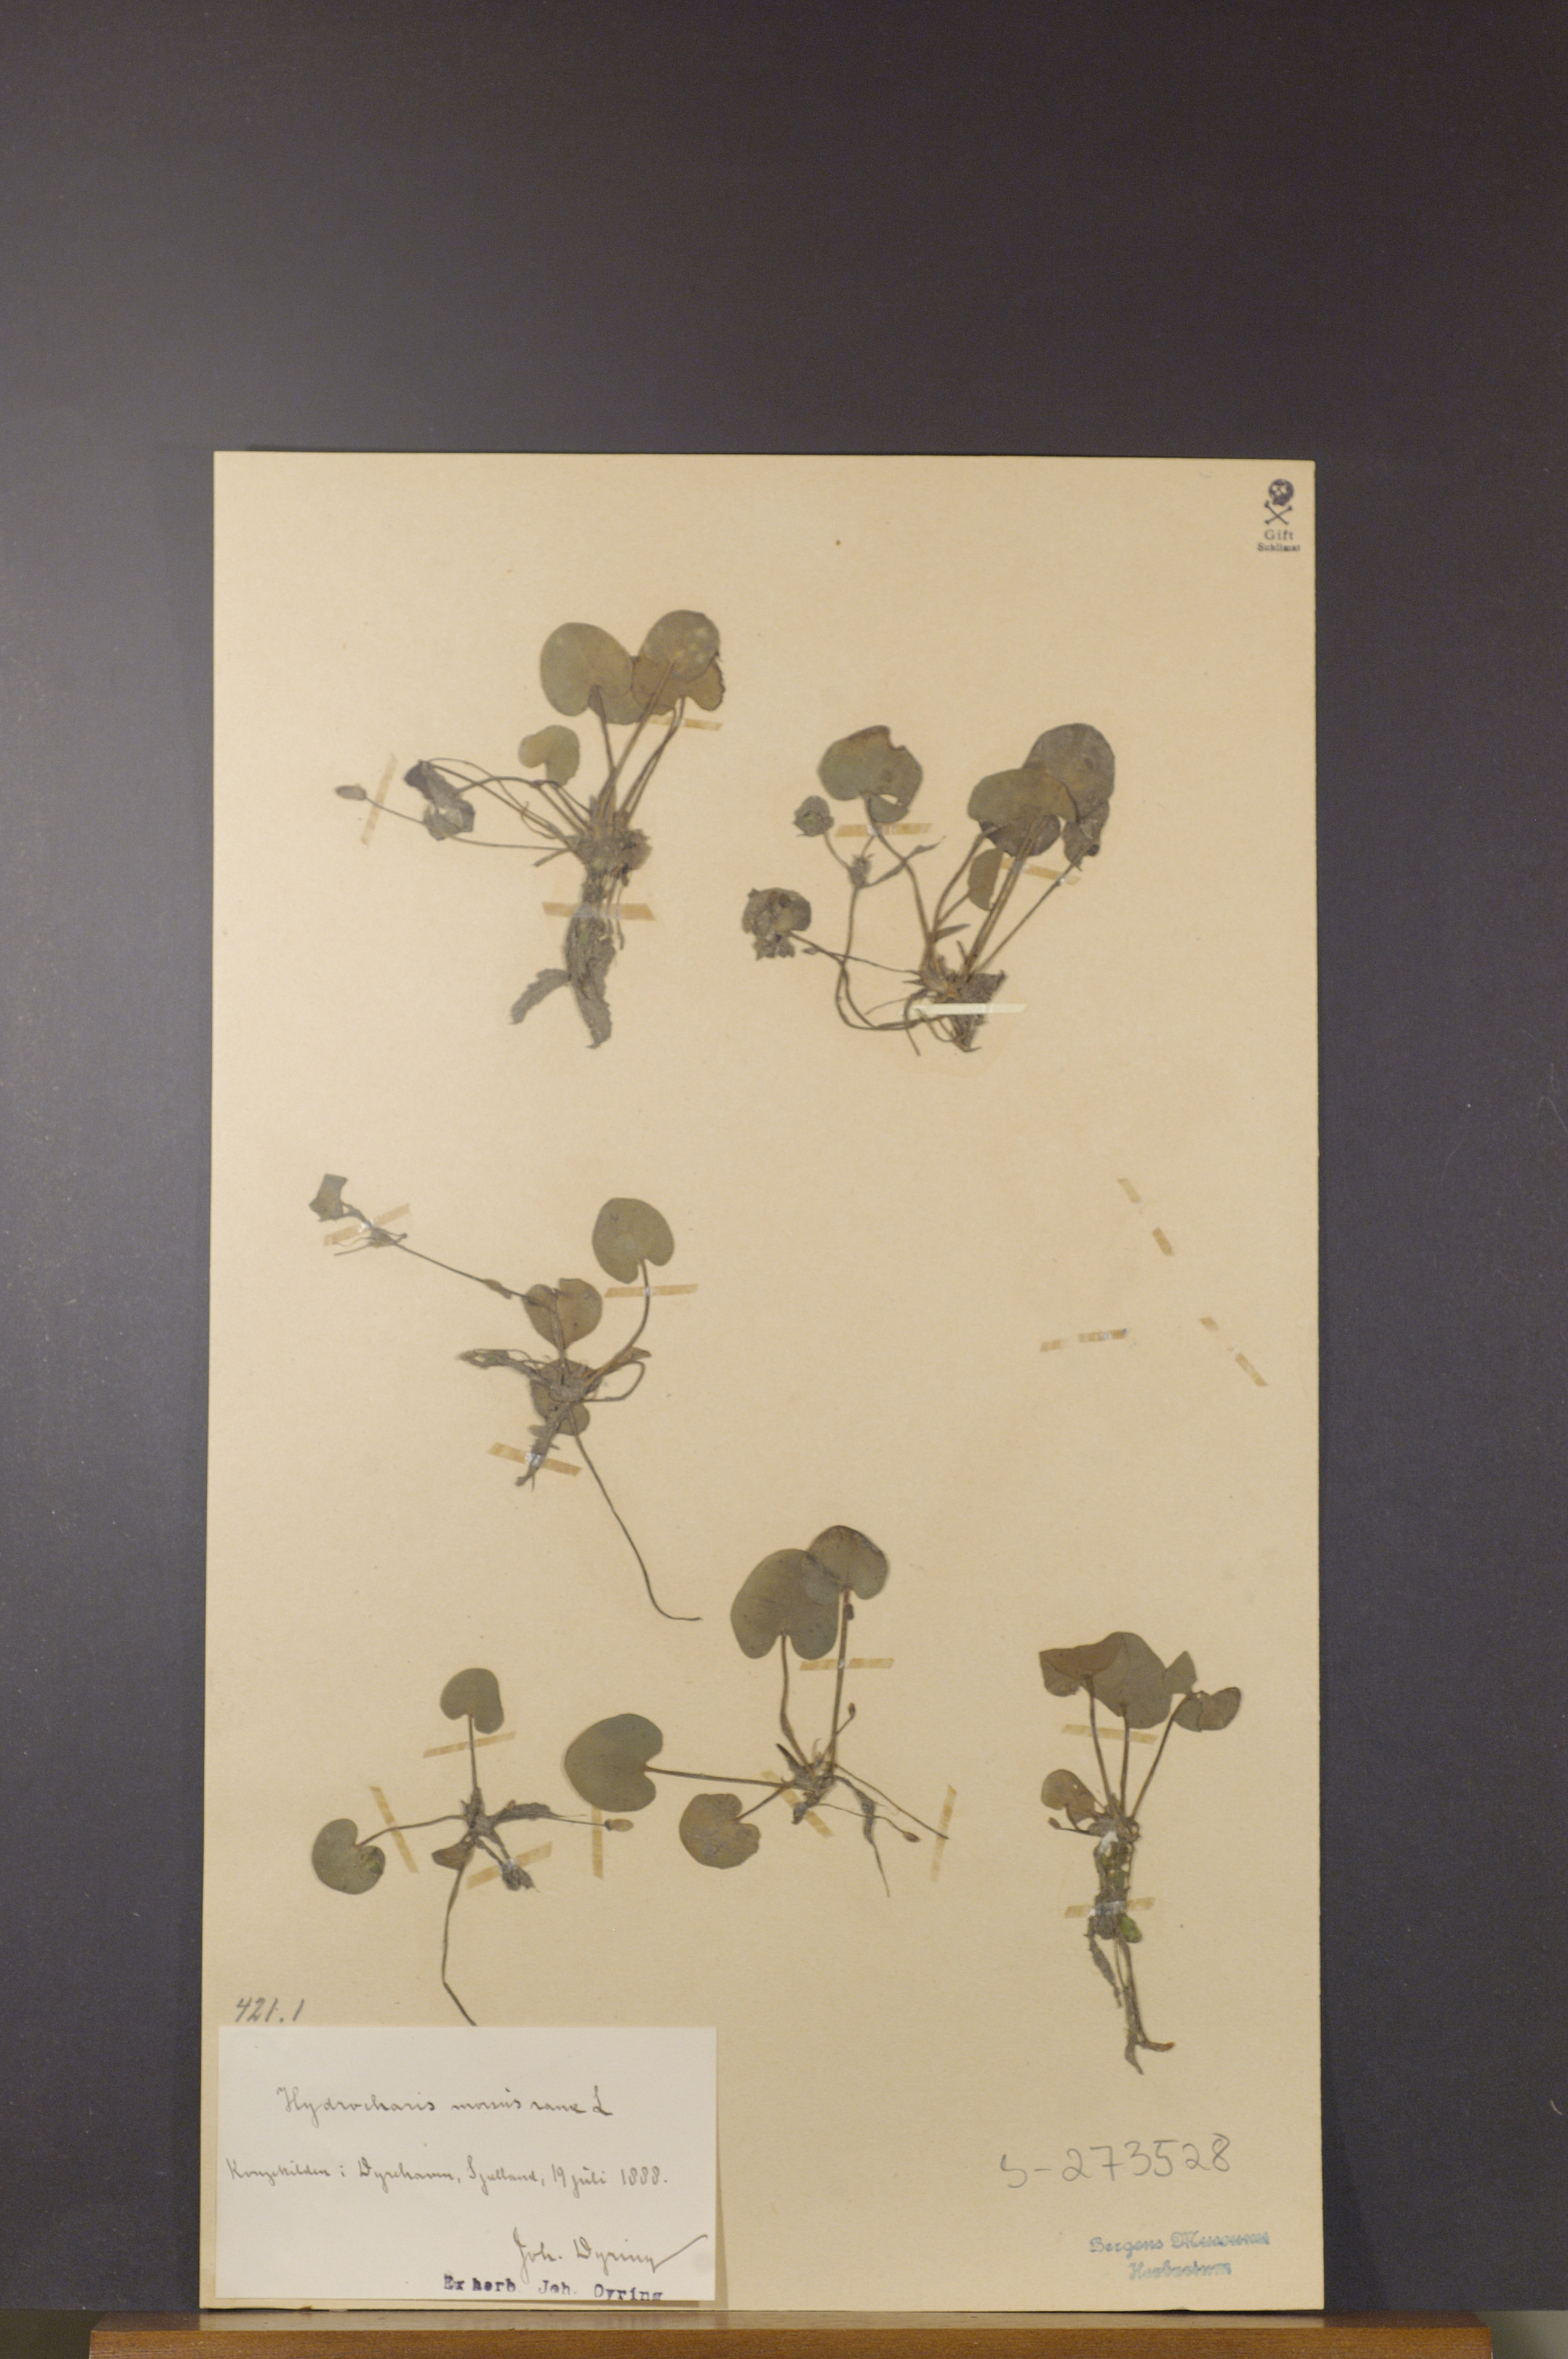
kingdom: Plantae
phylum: Tracheophyta
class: Liliopsida
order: Alismatales
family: Hydrocharitaceae
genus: Hydrocharis
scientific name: Hydrocharis morsus-ranae
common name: Frogbit
